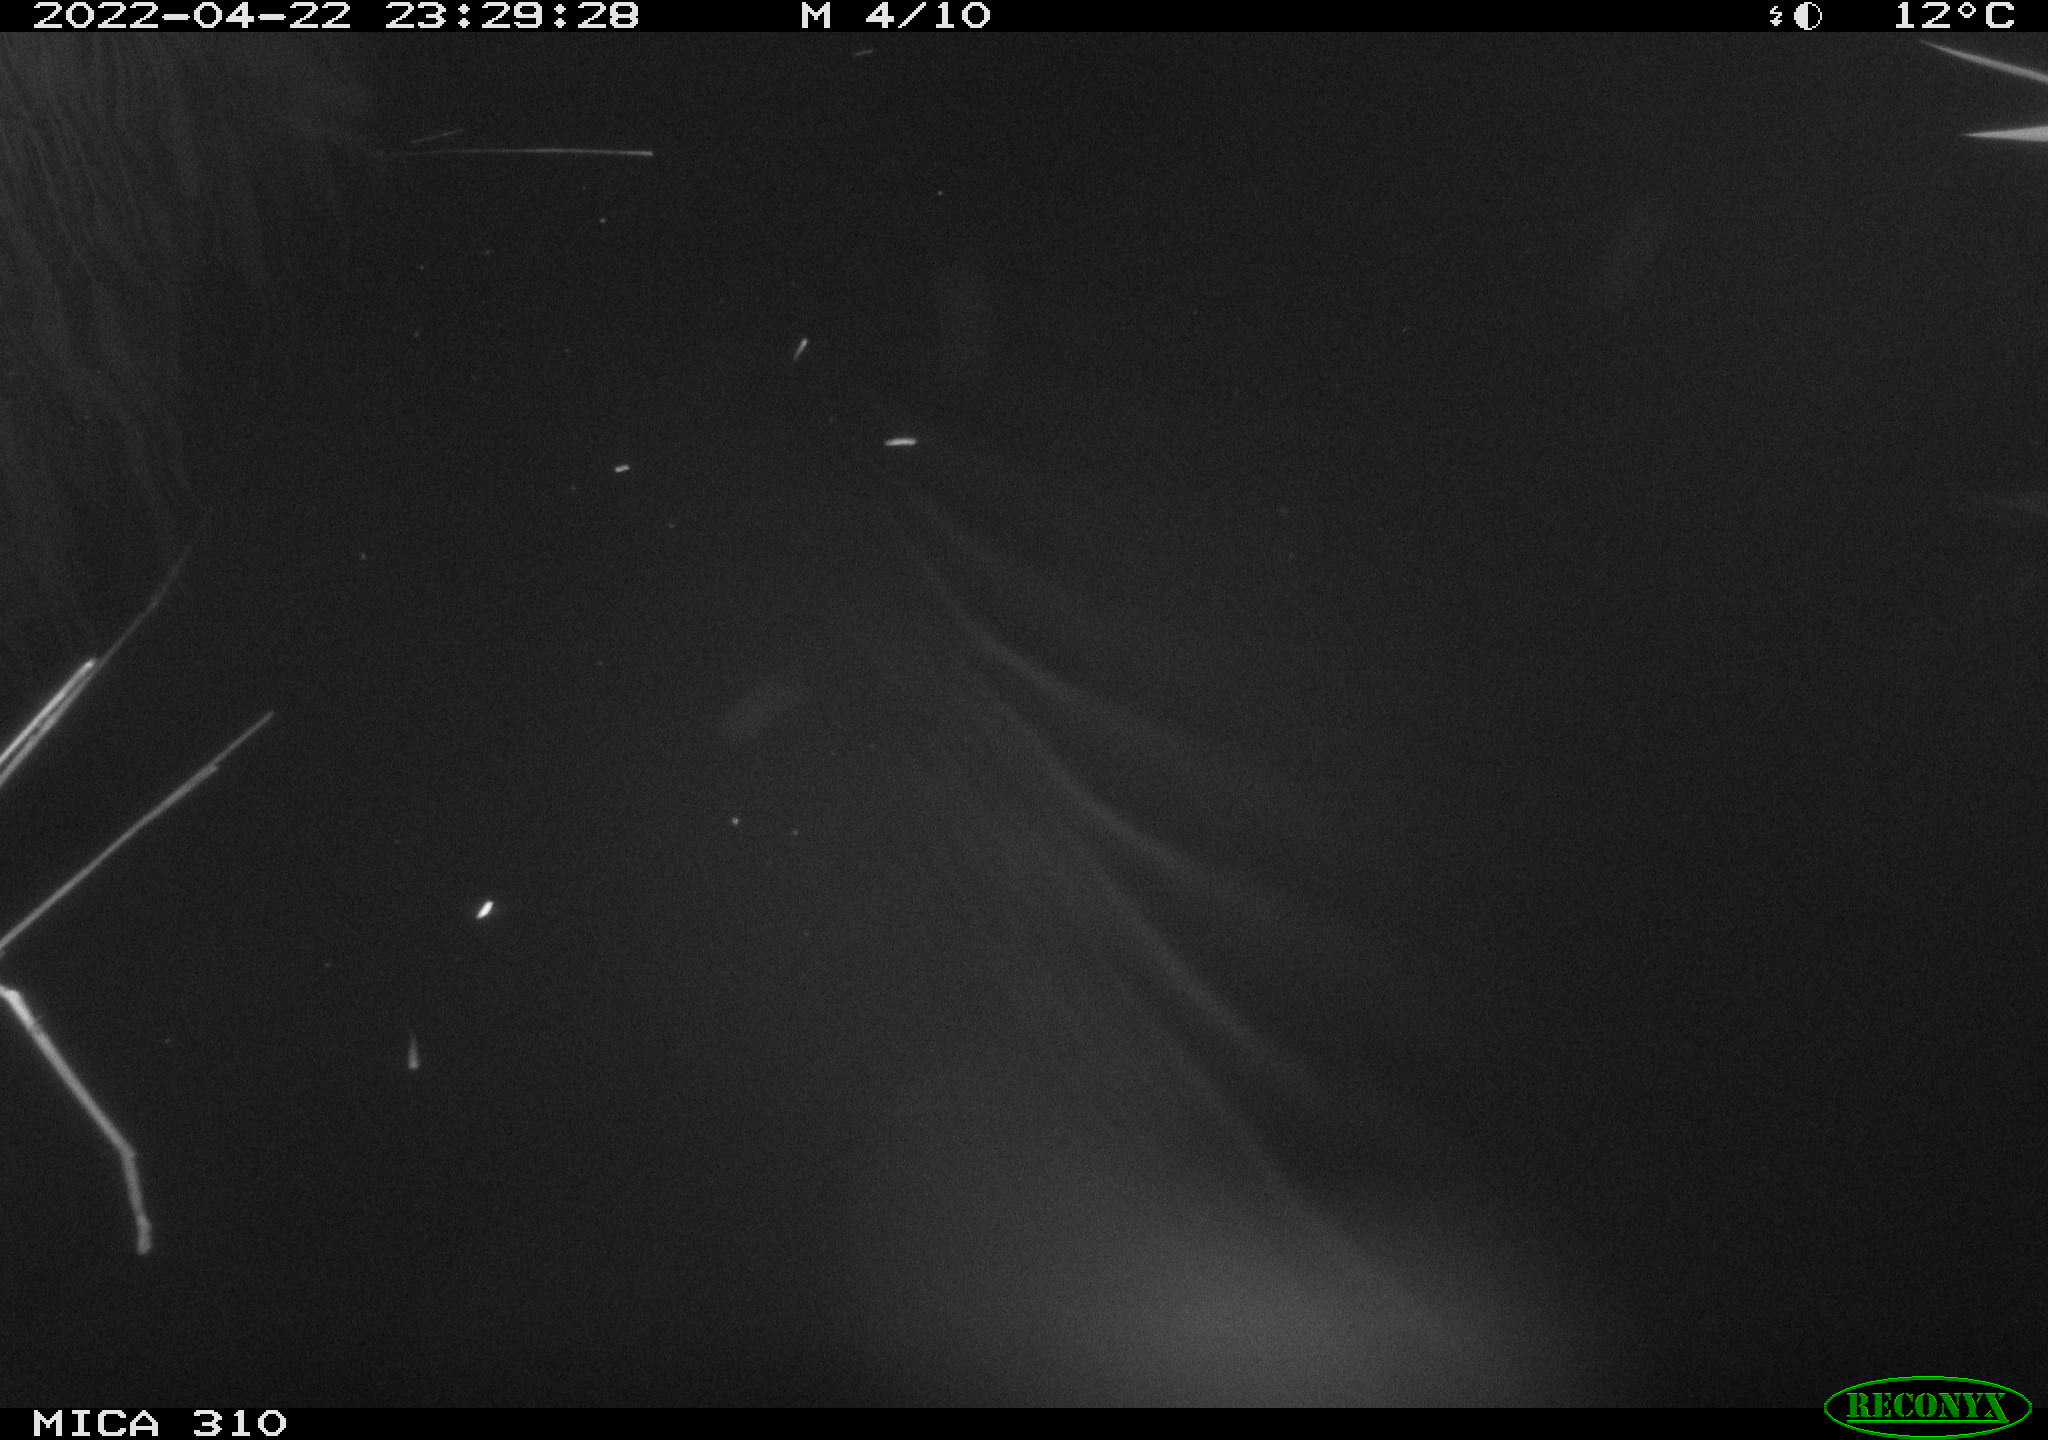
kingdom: Animalia
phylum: Chordata
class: Aves
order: Anseriformes
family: Anatidae
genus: Anas
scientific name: Anas platyrhynchos
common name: Mallard
